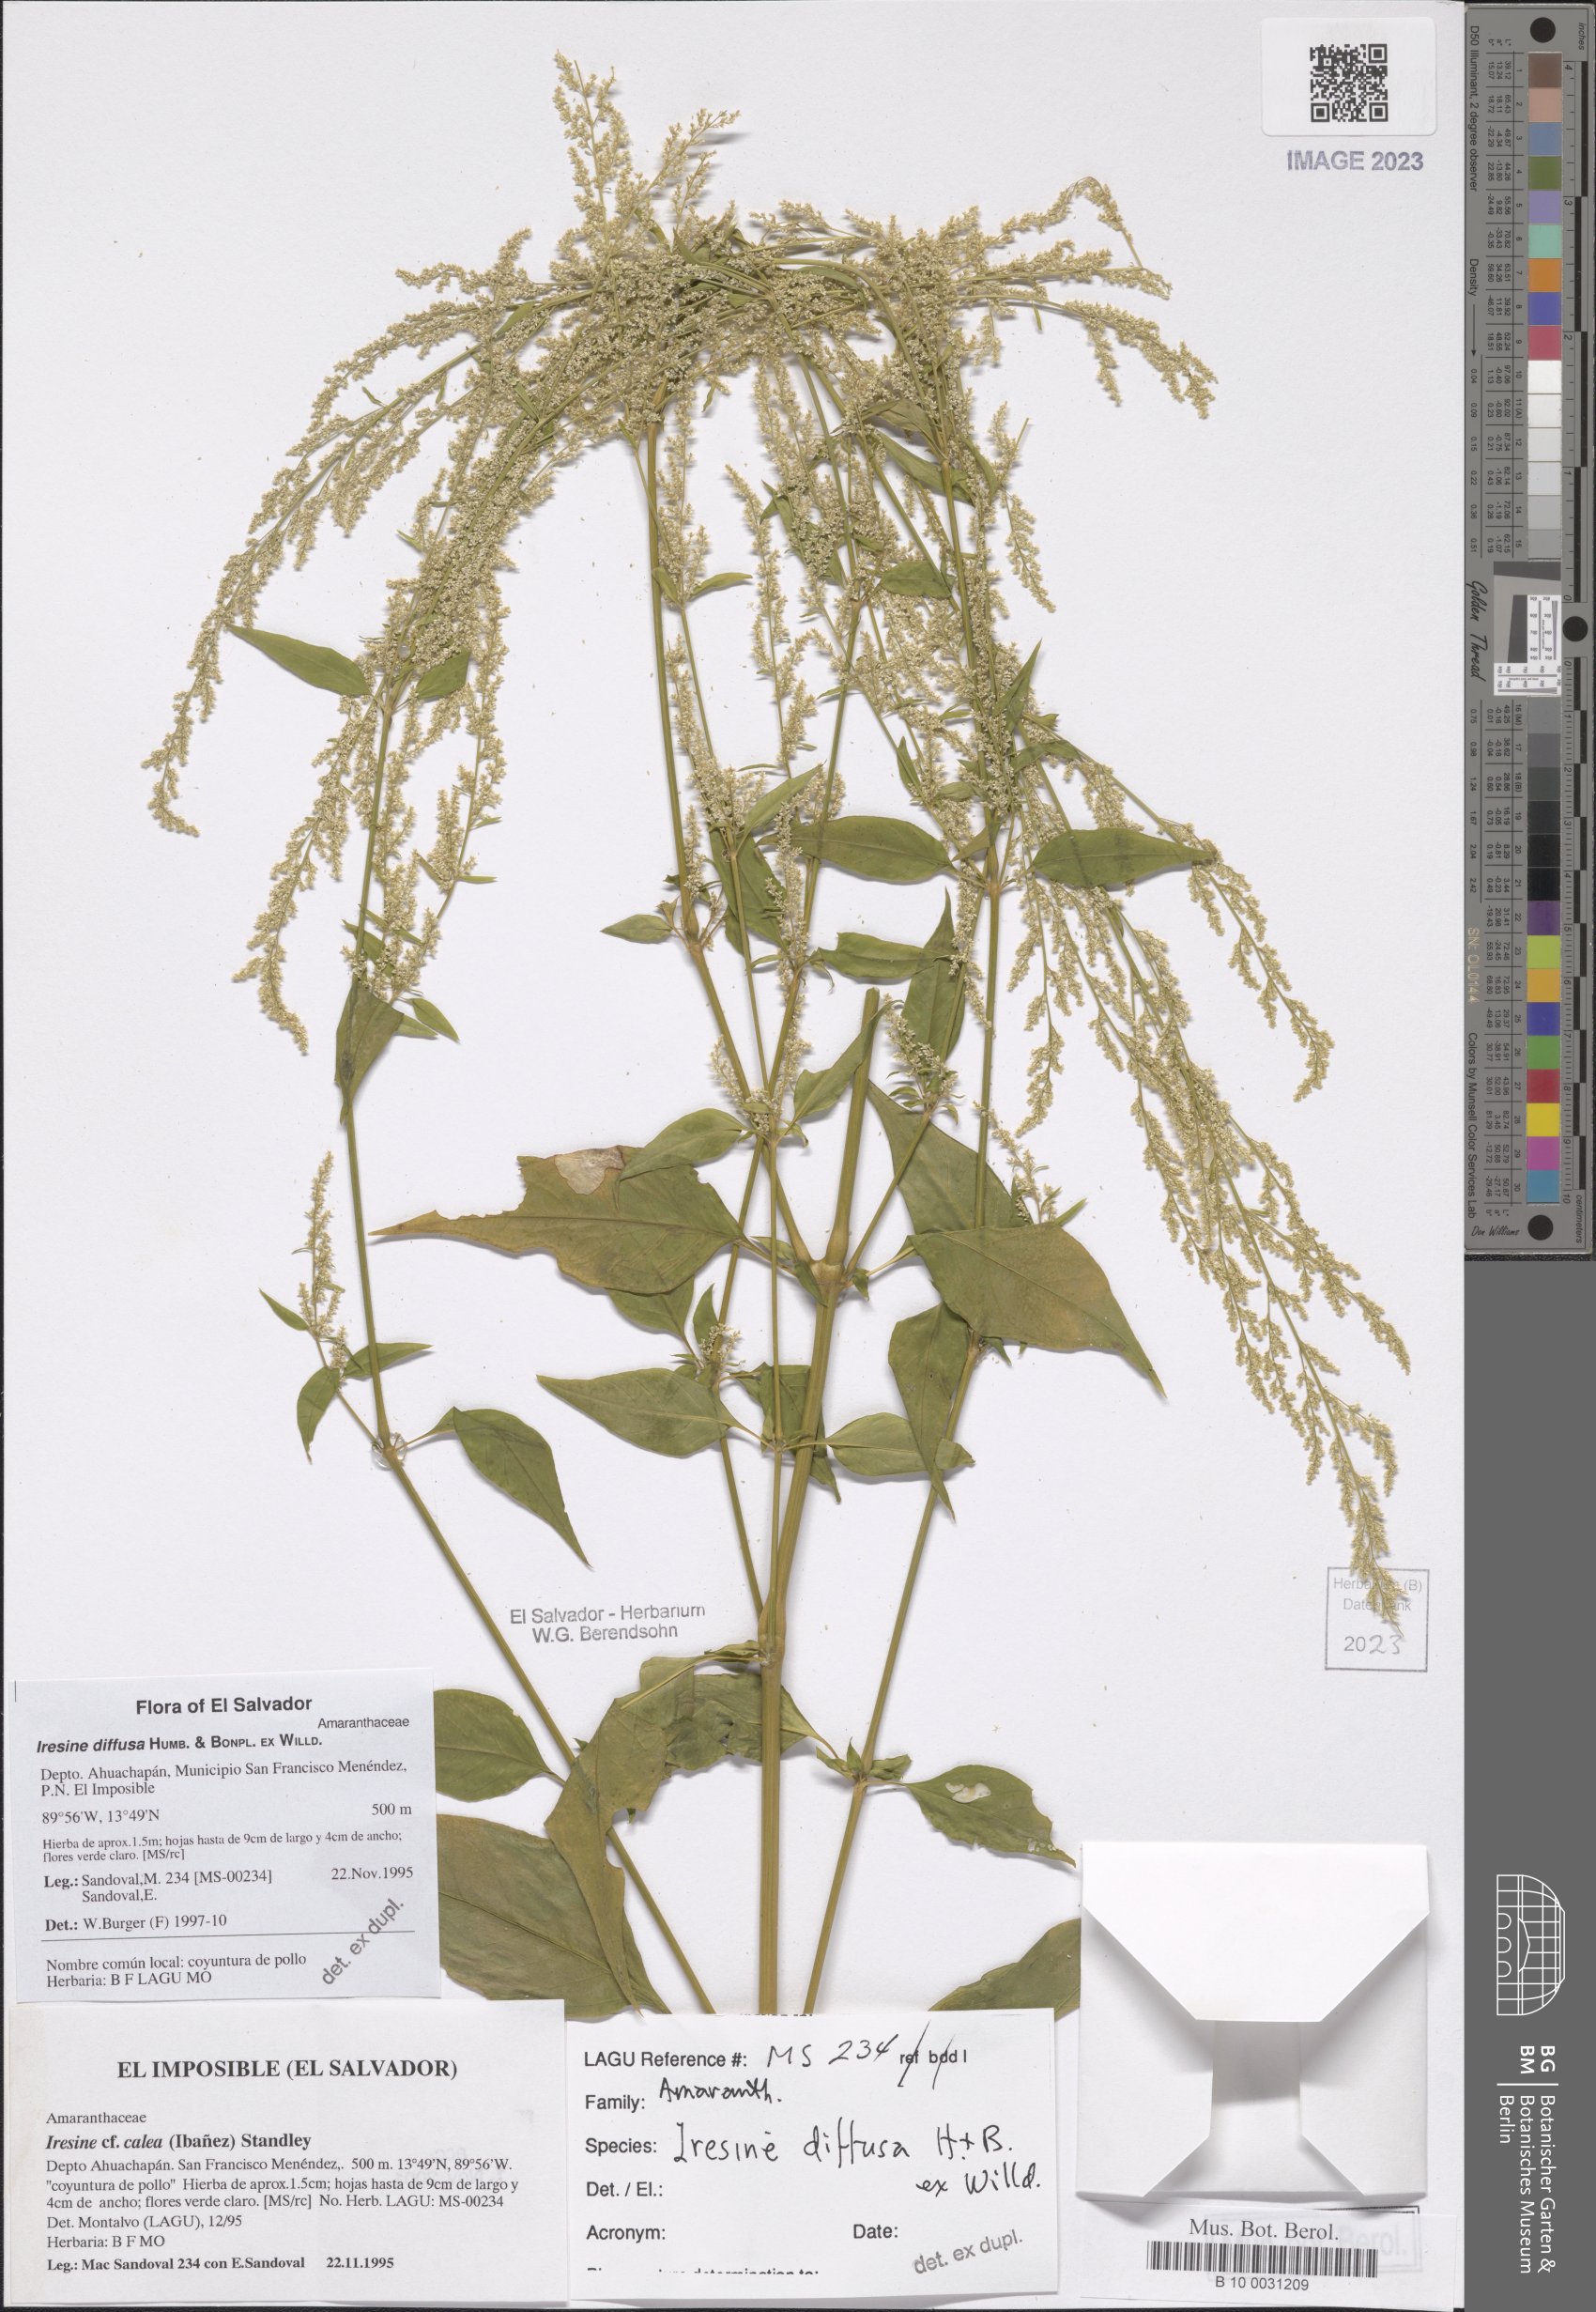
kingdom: Plantae
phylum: Tracheophyta
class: Magnoliopsida
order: Caryophyllales
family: Amaranthaceae
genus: Iresine
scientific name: Iresine diffusa
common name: Juba's-bush
